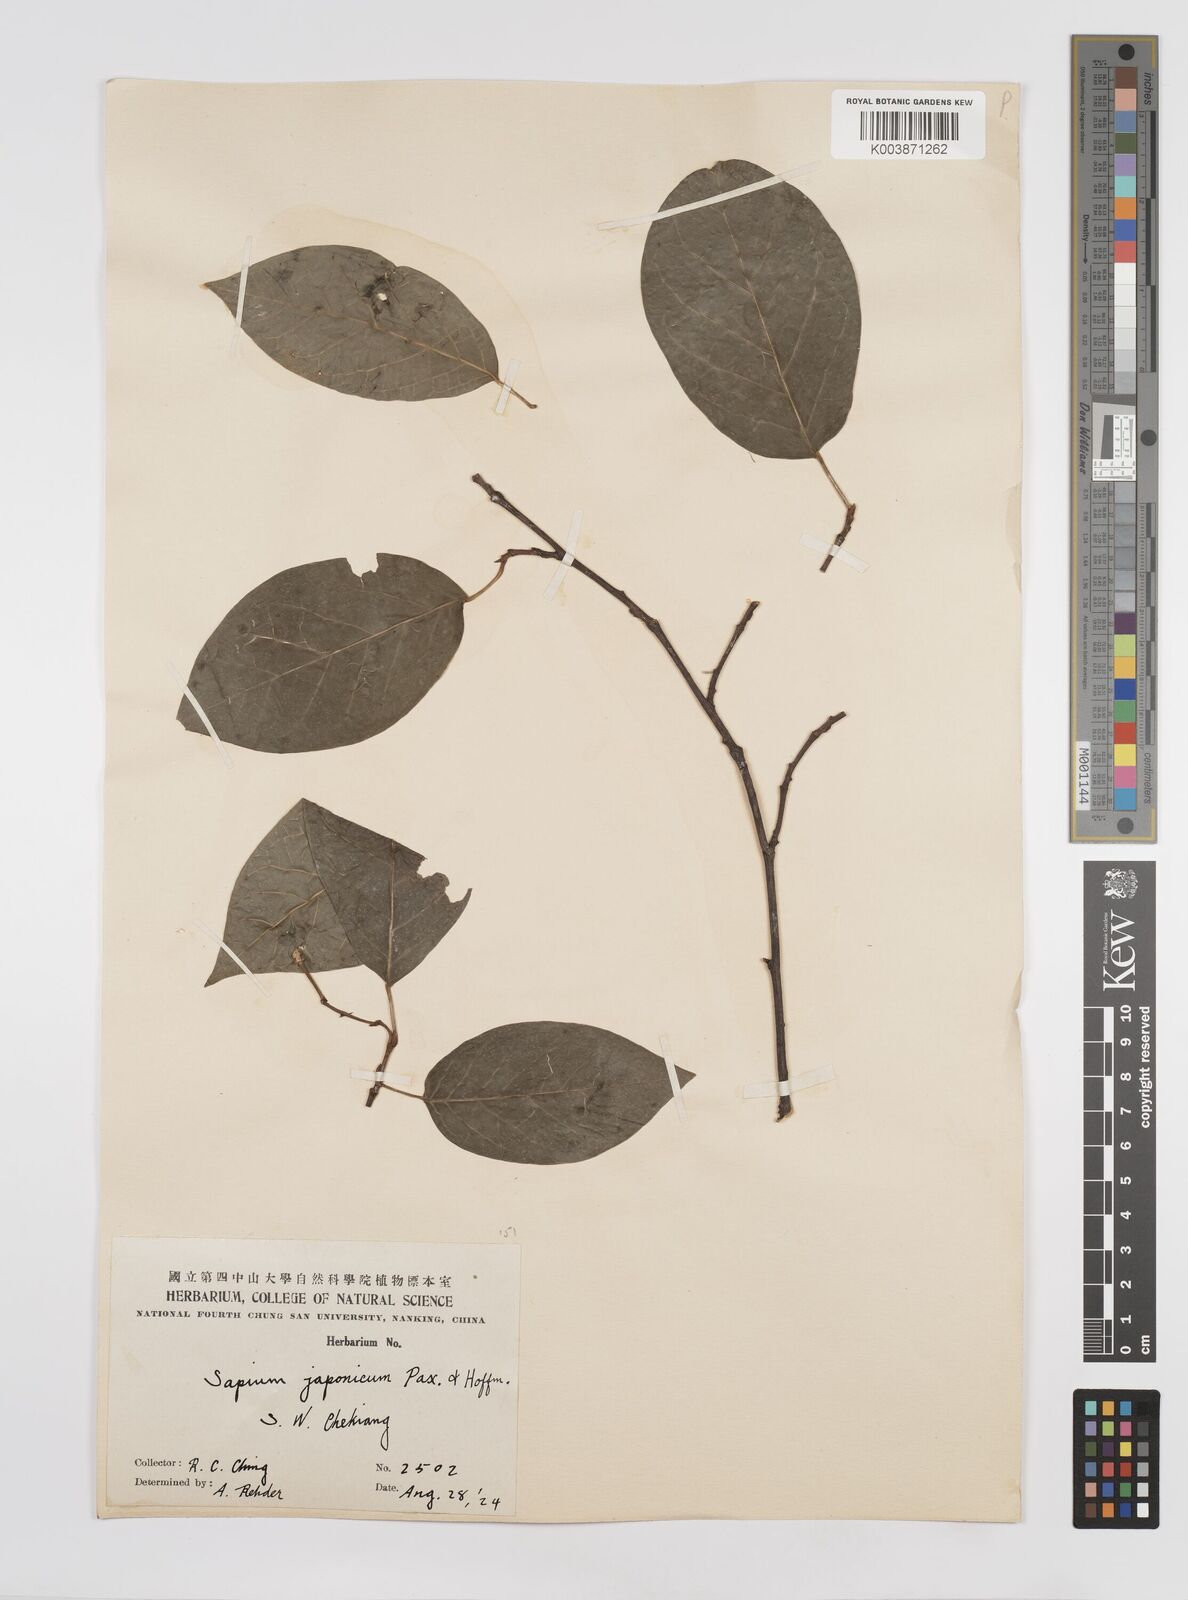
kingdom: Plantae
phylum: Tracheophyta
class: Magnoliopsida
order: Malpighiales
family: Euphorbiaceae
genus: Neoshirakia
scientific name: Neoshirakia japonica
